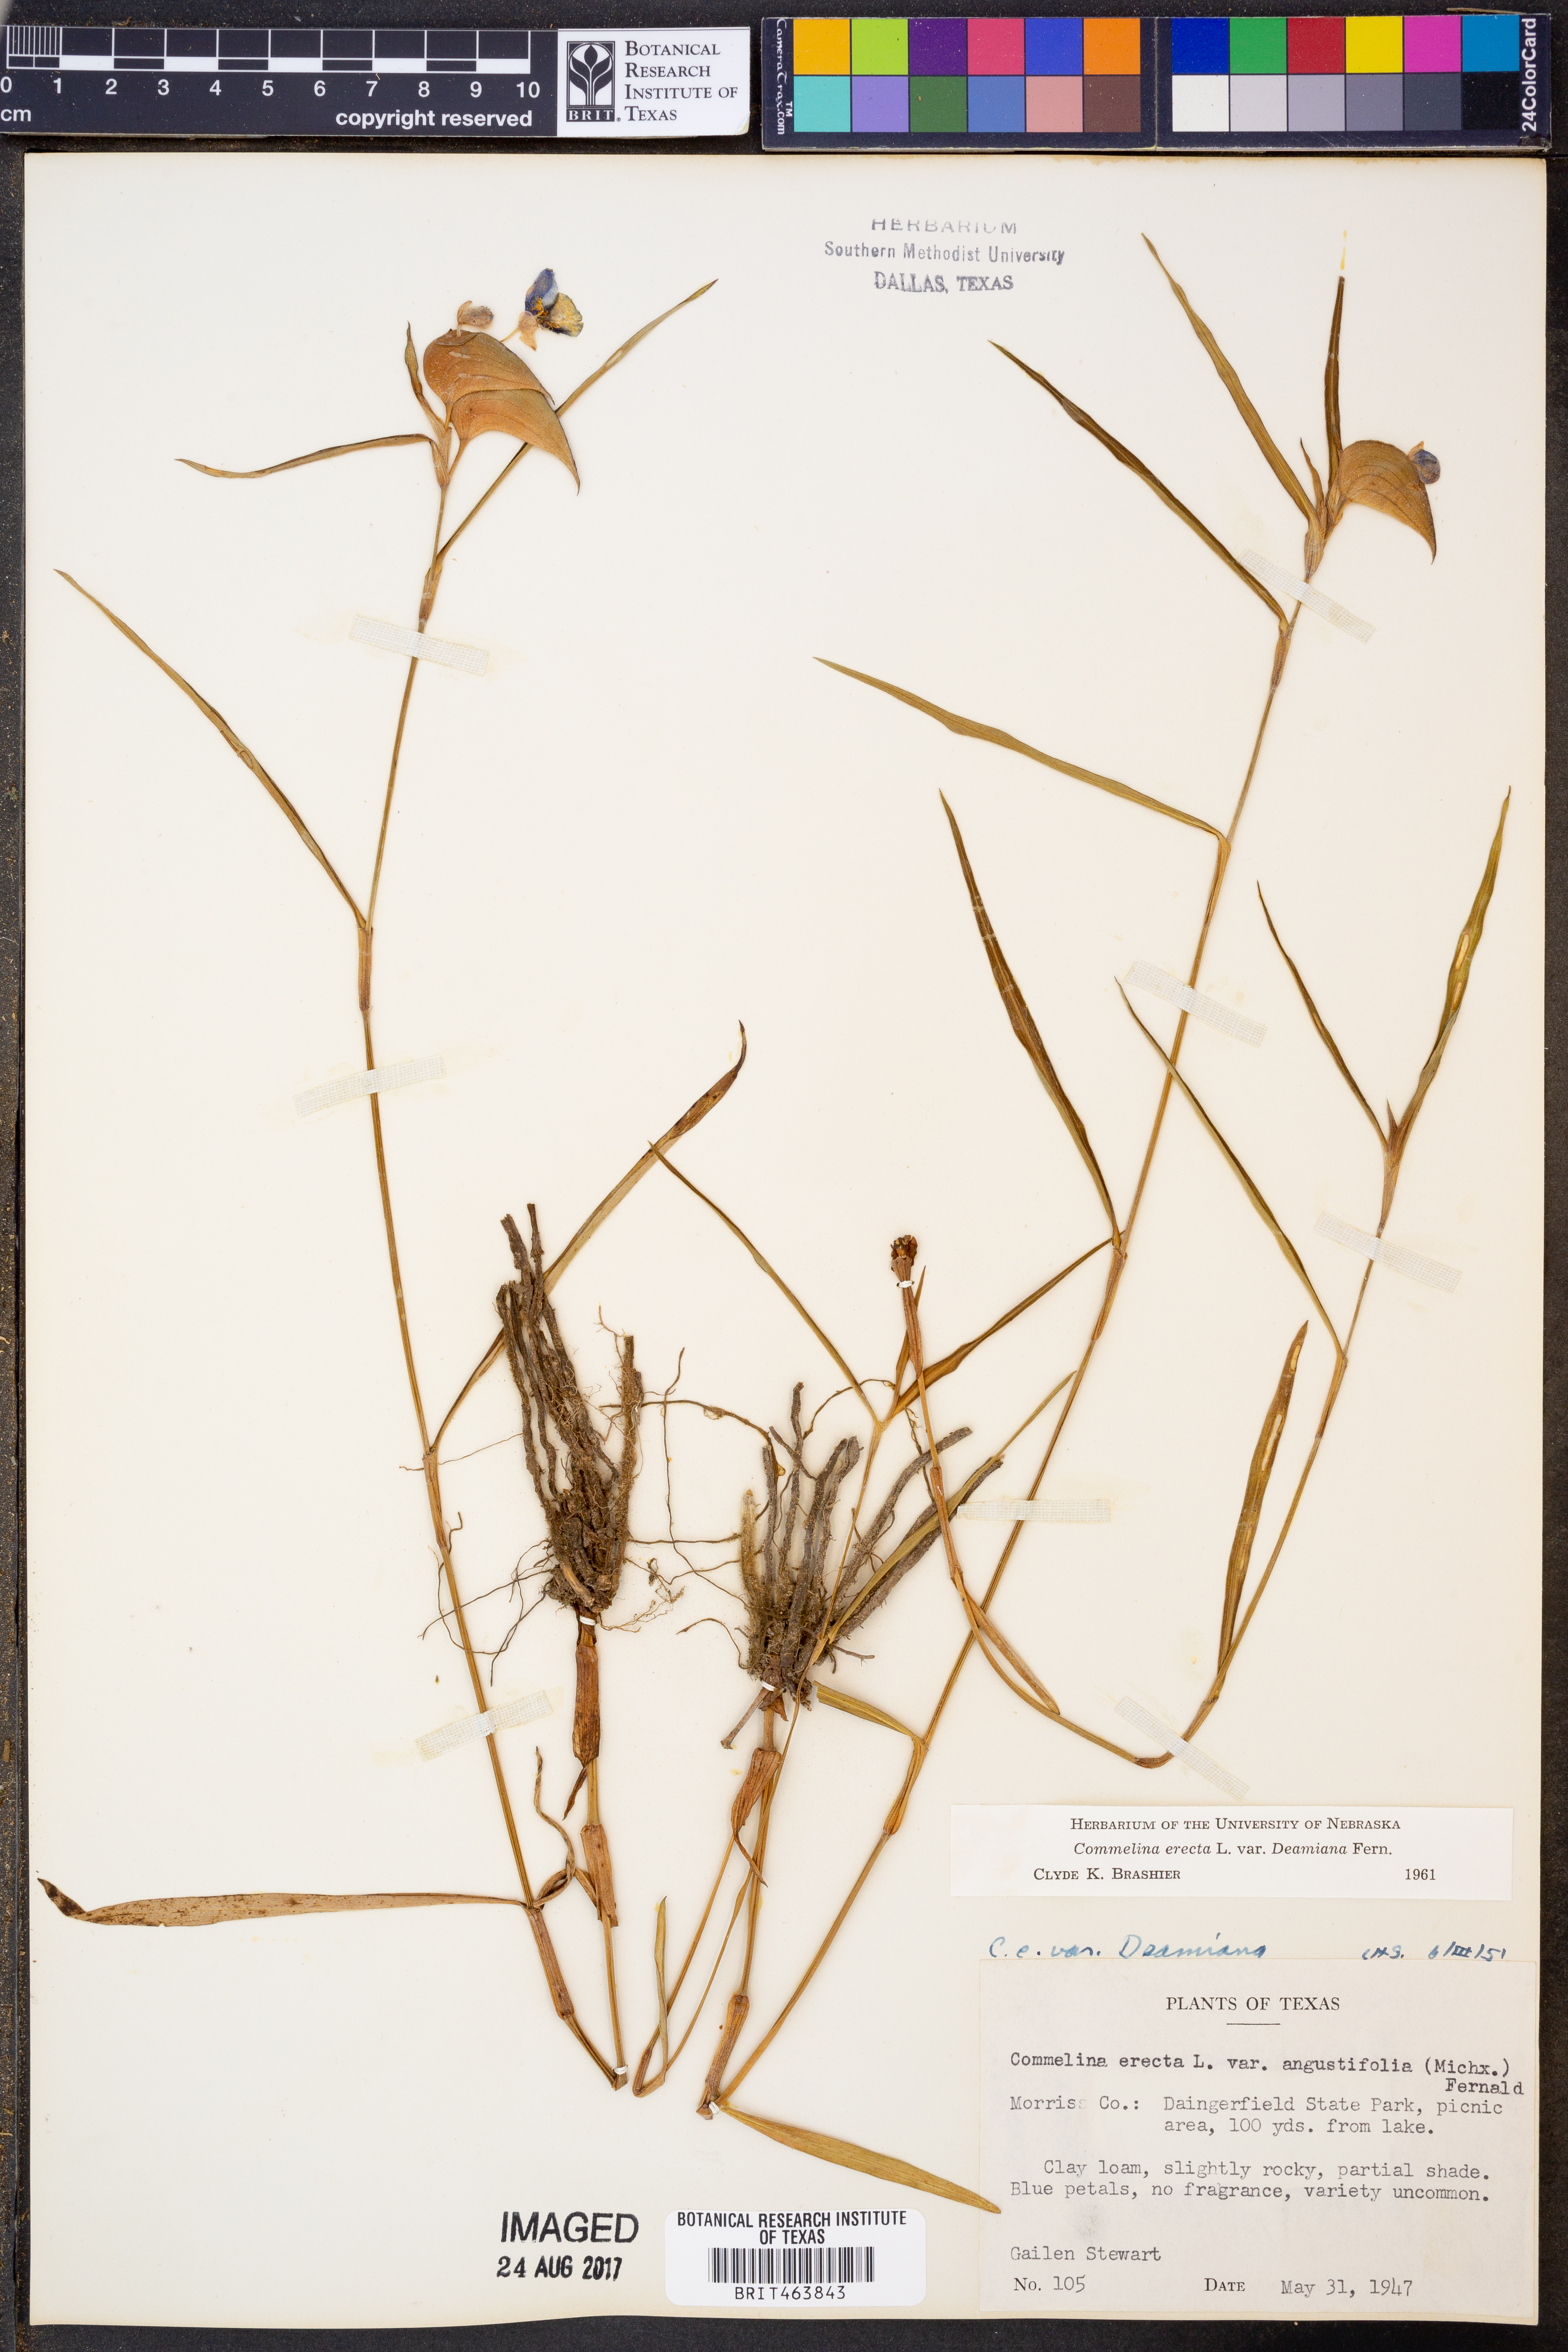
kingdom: Plantae
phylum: Tracheophyta
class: Liliopsida
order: Commelinales
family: Commelinaceae
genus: Commelina
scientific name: Commelina erecta
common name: Blousel blommetjie
